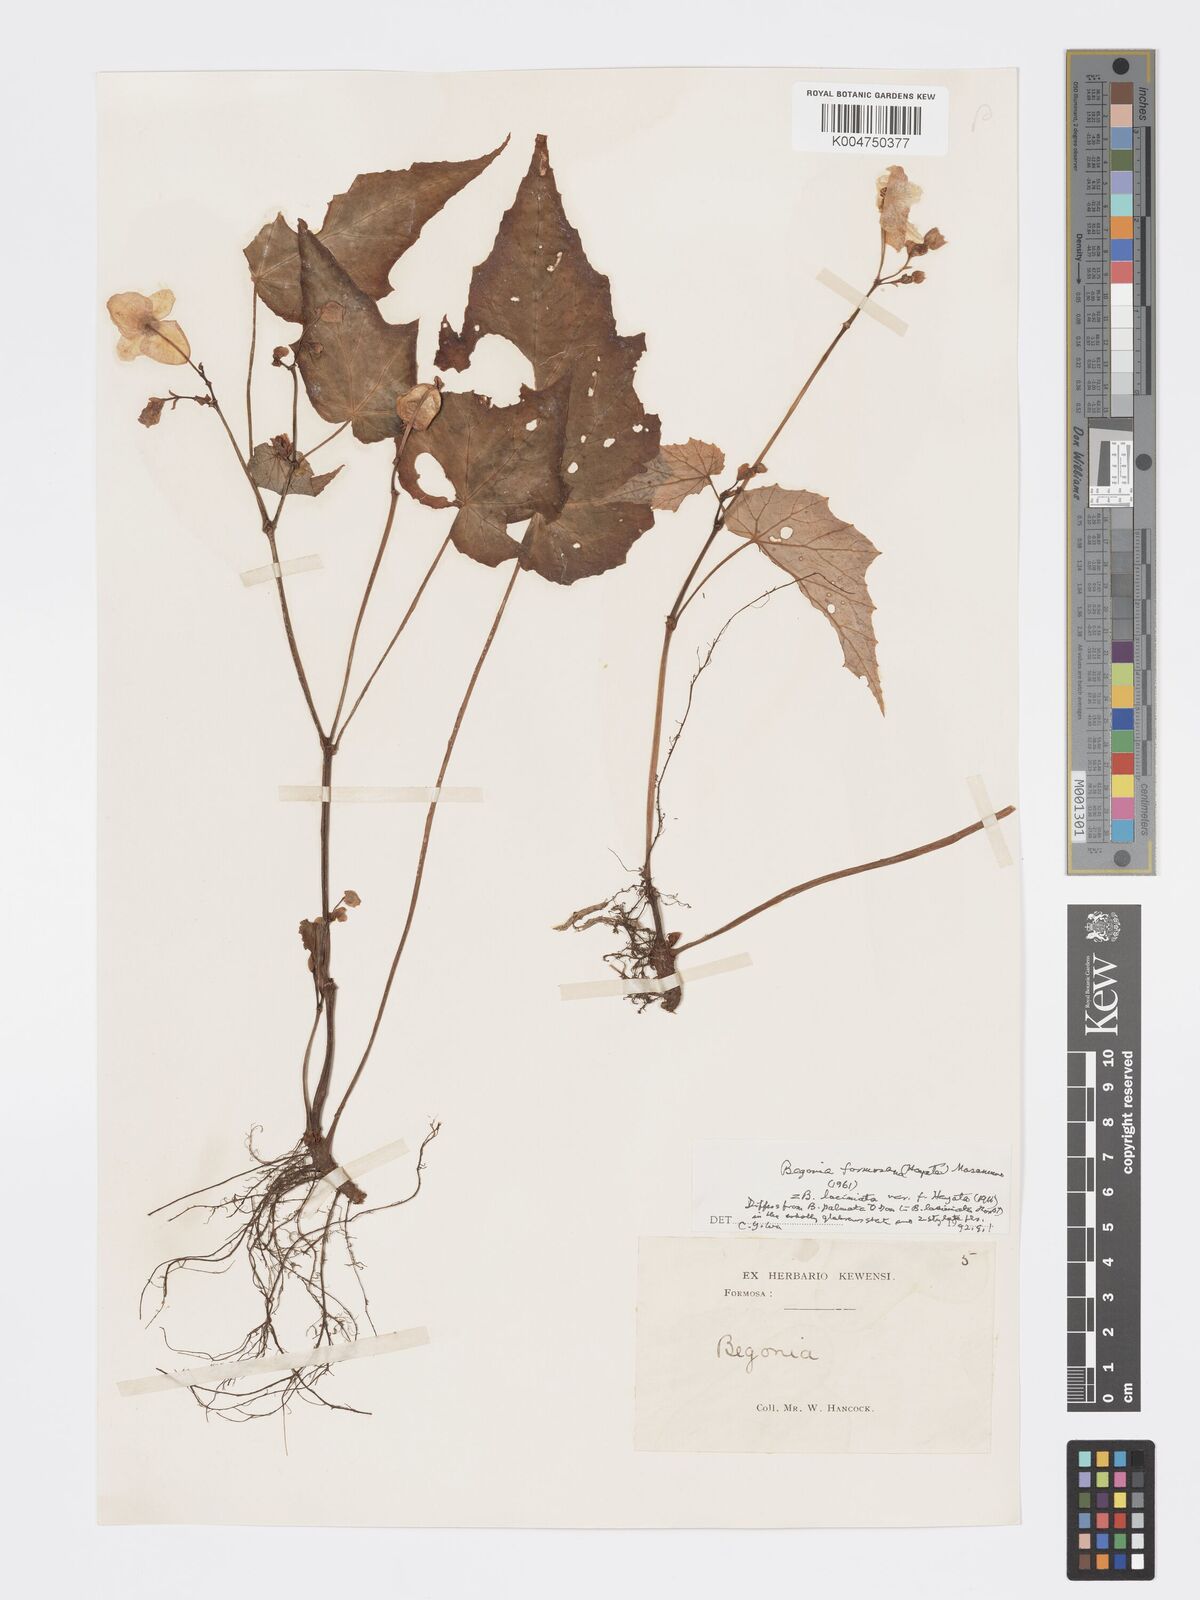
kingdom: Plantae
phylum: Tracheophyta
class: Magnoliopsida
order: Cucurbitales
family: Begoniaceae
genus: Begonia
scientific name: Begonia palmata
